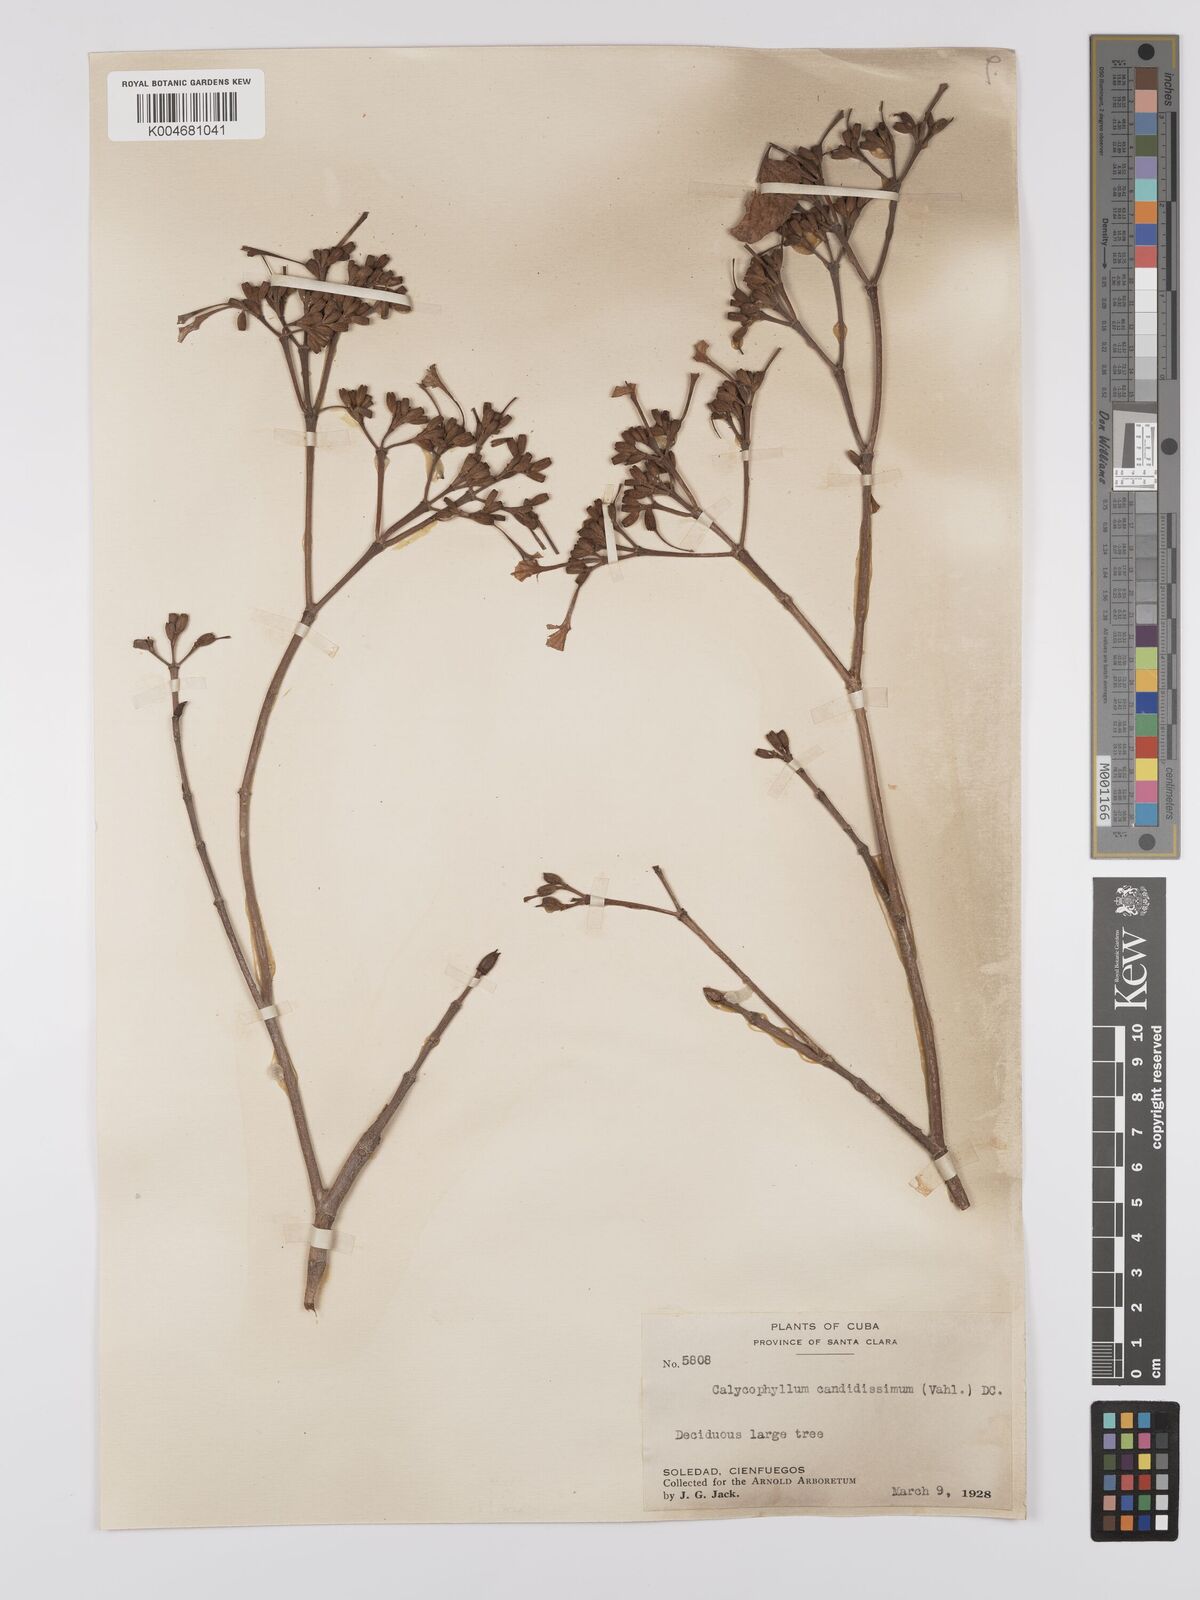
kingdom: Plantae
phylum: Tracheophyta
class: Magnoliopsida
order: Gentianales
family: Rubiaceae
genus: Calycophyllum
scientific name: Calycophyllum candidissimum
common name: Dagame
